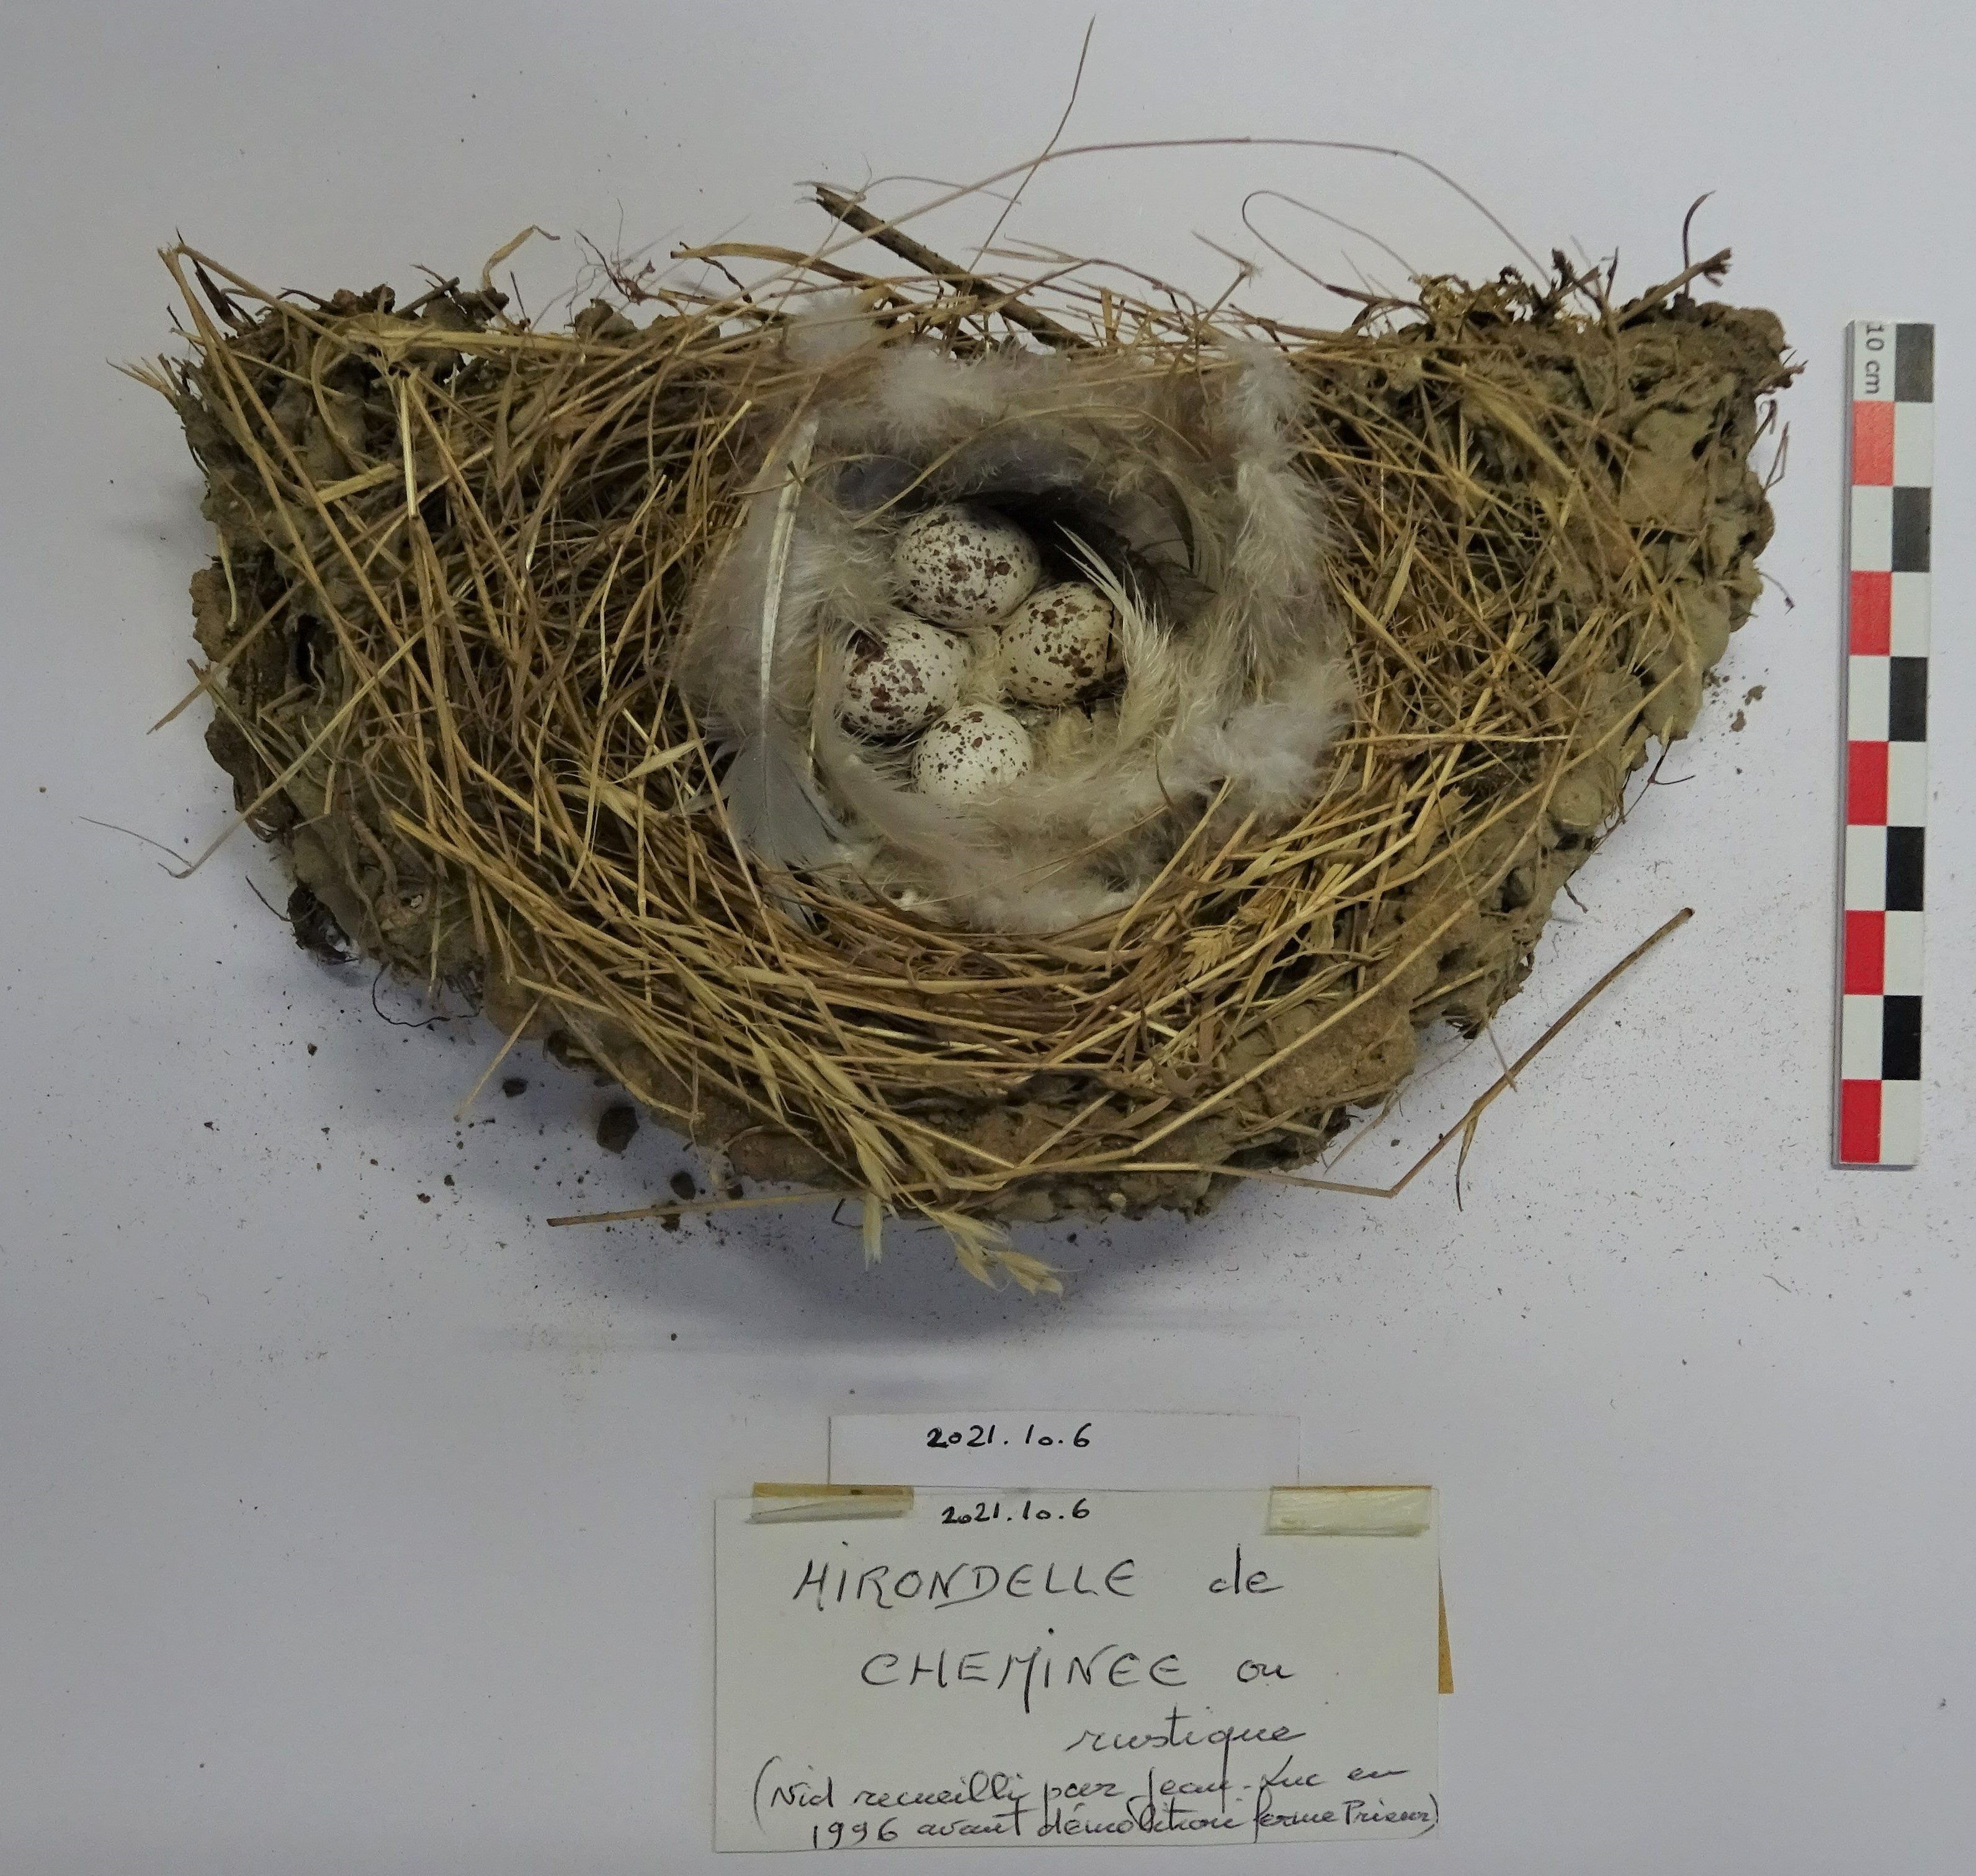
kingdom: Animalia
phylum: Chordata
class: Aves
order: Passeriformes
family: Hirundinidae
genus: Hirundo
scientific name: Hirundo rustica
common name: Barn swallow
